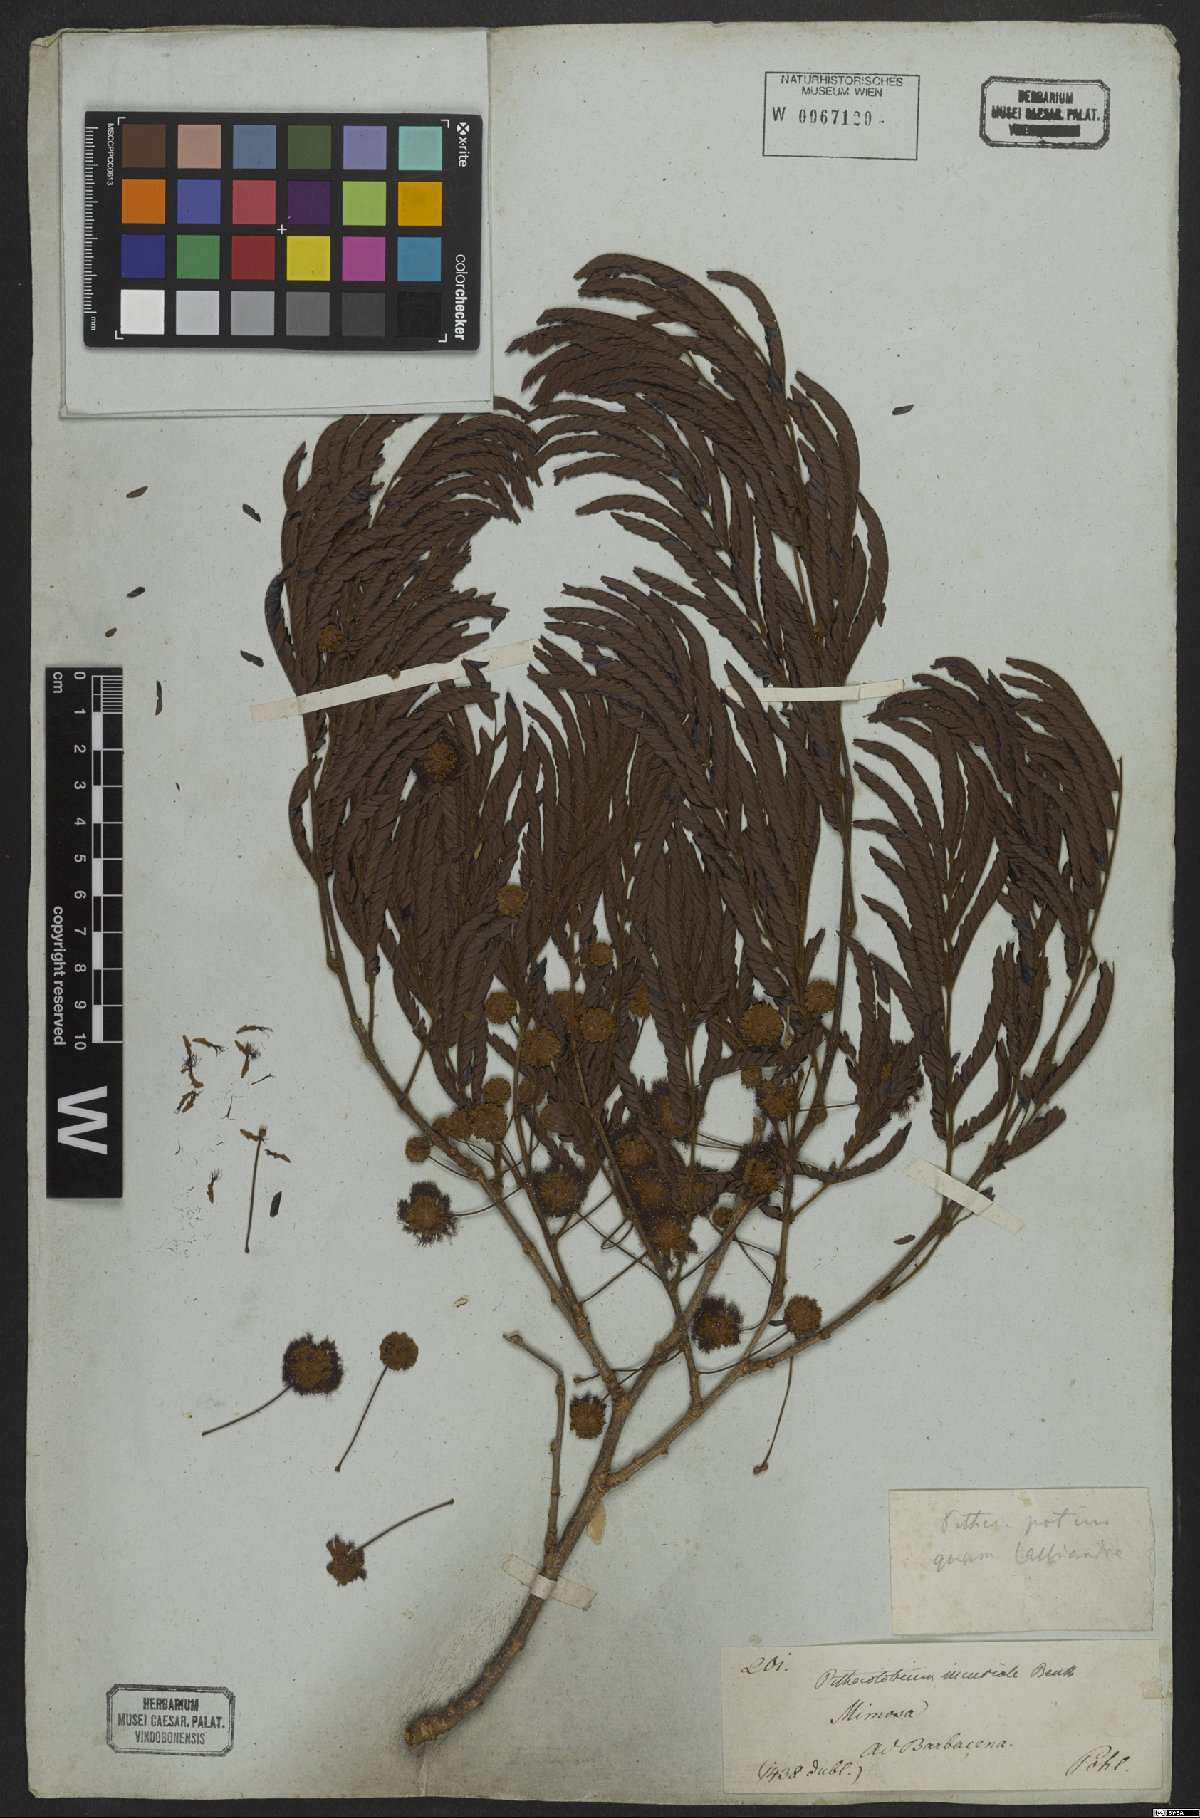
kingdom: Plantae
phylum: Tracheophyta
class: Magnoliopsida
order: Fabales
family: Fabaceae
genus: Leucochloron
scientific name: Leucochloron incuriale
